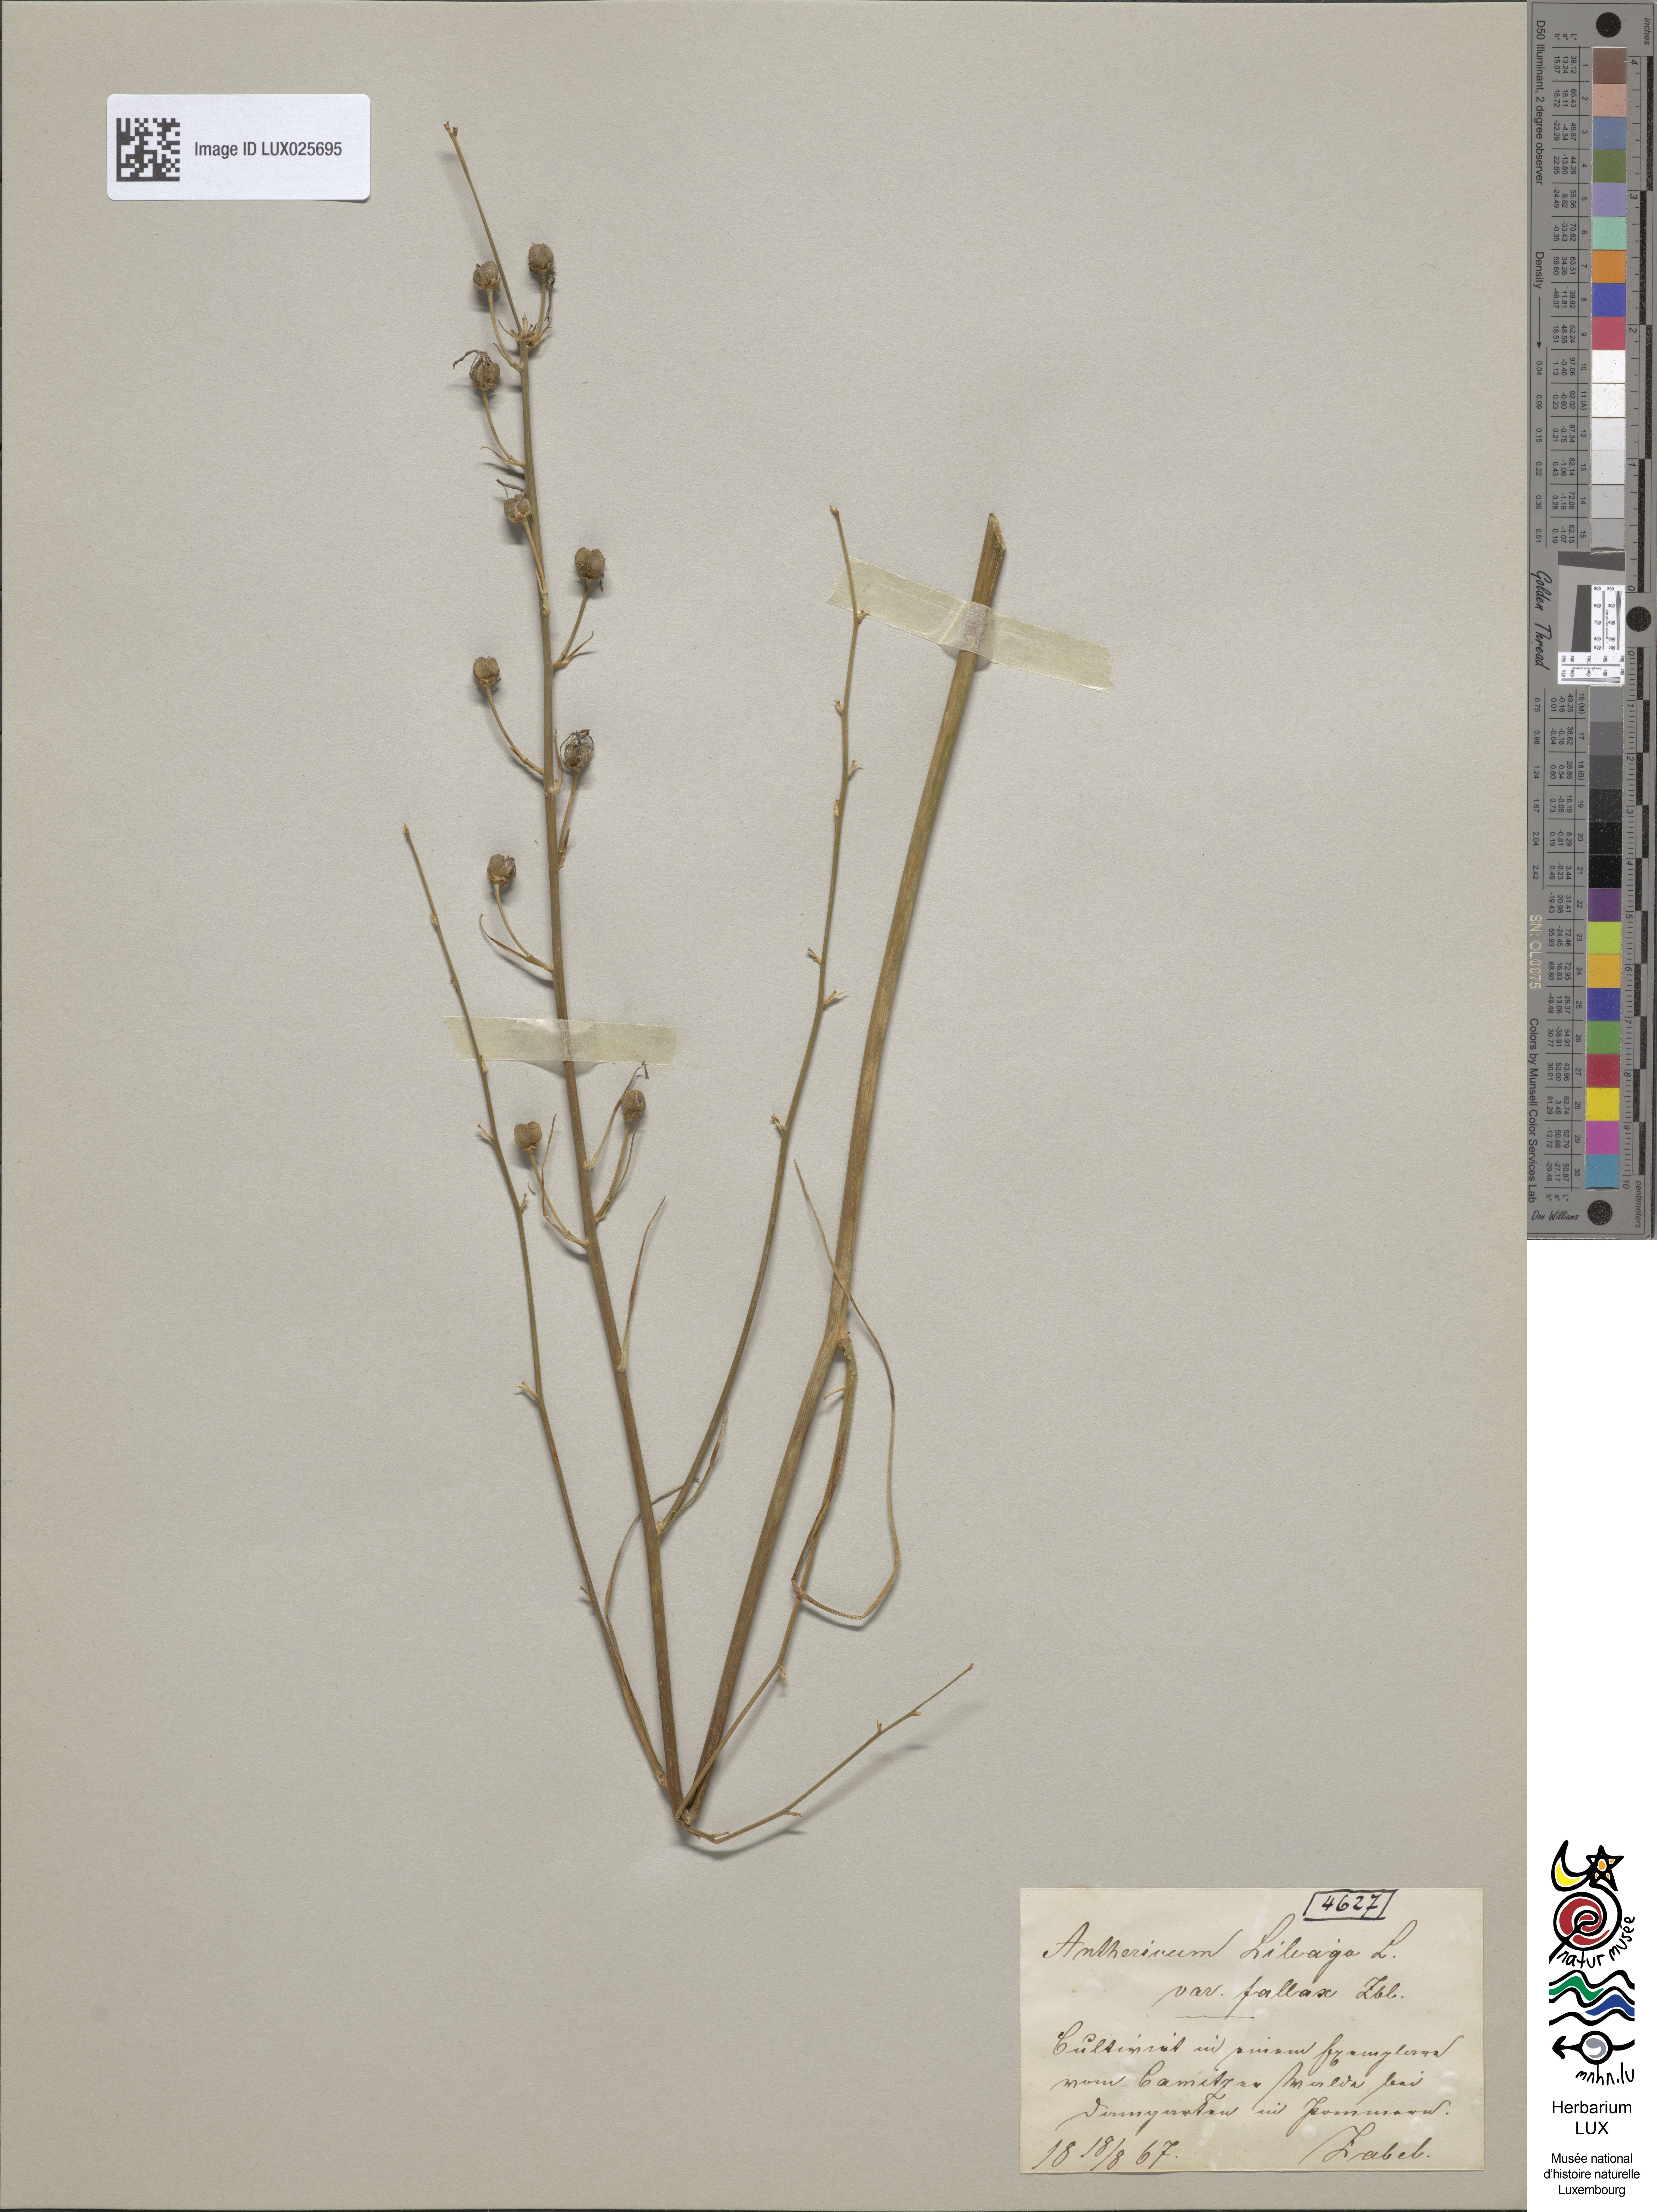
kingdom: Plantae
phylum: Tracheophyta
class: Liliopsida
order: Asparagales
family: Asparagaceae
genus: Anthericum
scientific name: Anthericum liliago
